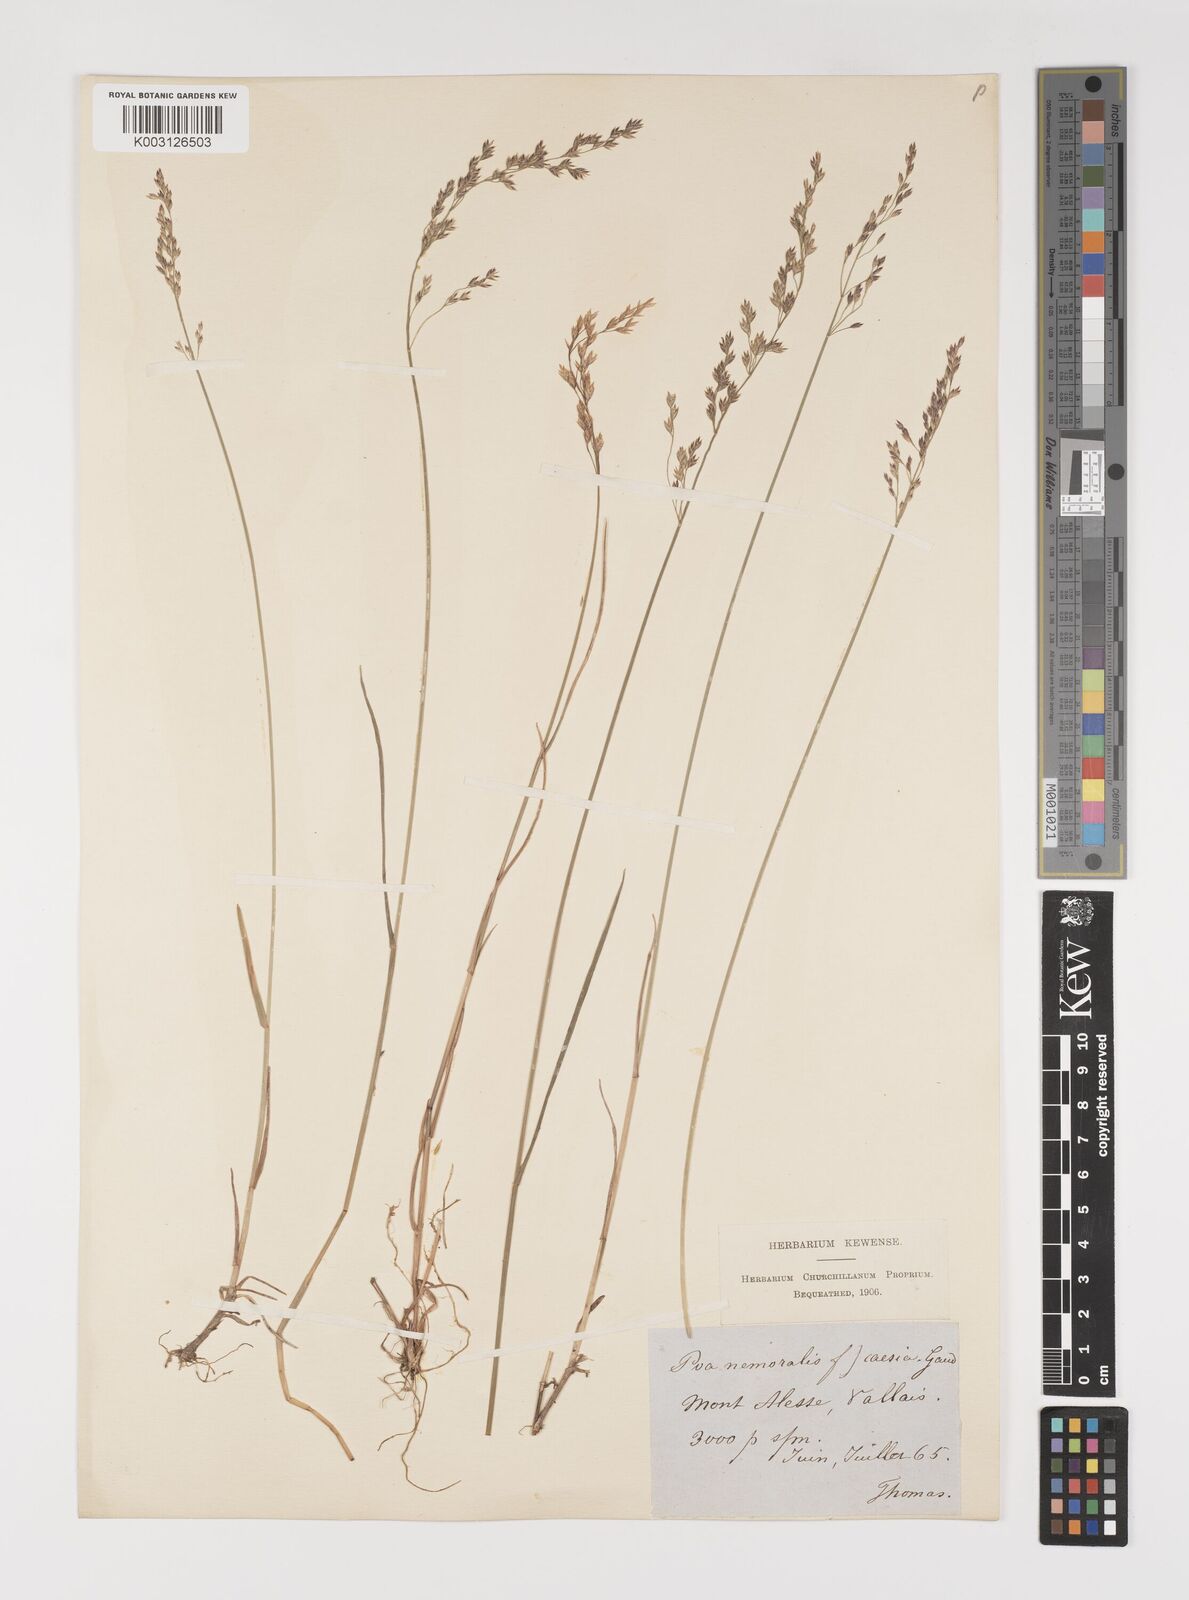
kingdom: Plantae
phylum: Tracheophyta
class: Liliopsida
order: Poales
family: Poaceae
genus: Poa
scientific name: Poa nemoralis
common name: Wood bluegrass
